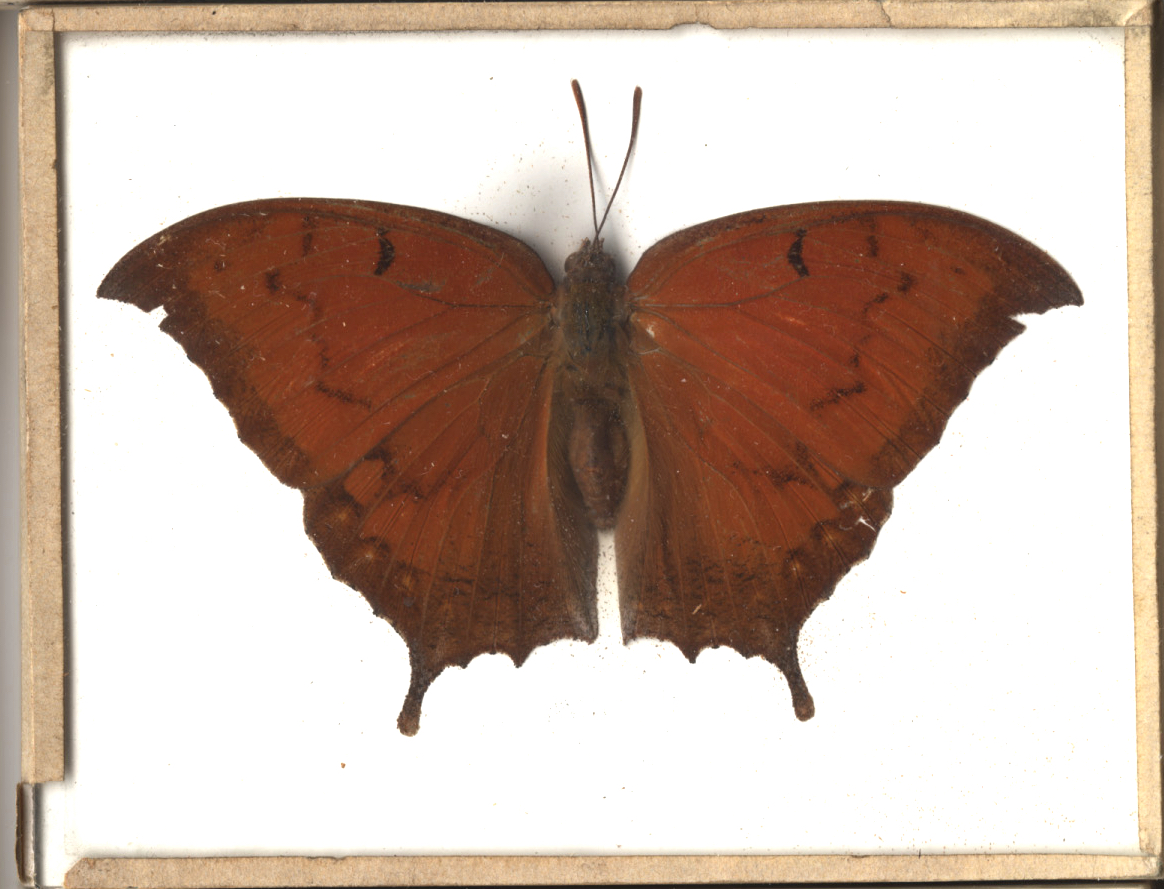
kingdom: Animalia
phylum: Arthropoda
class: Insecta
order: Lepidoptera
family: Nymphalidae
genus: Anaea
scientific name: Anaea aidea
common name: Florida Leafwing
